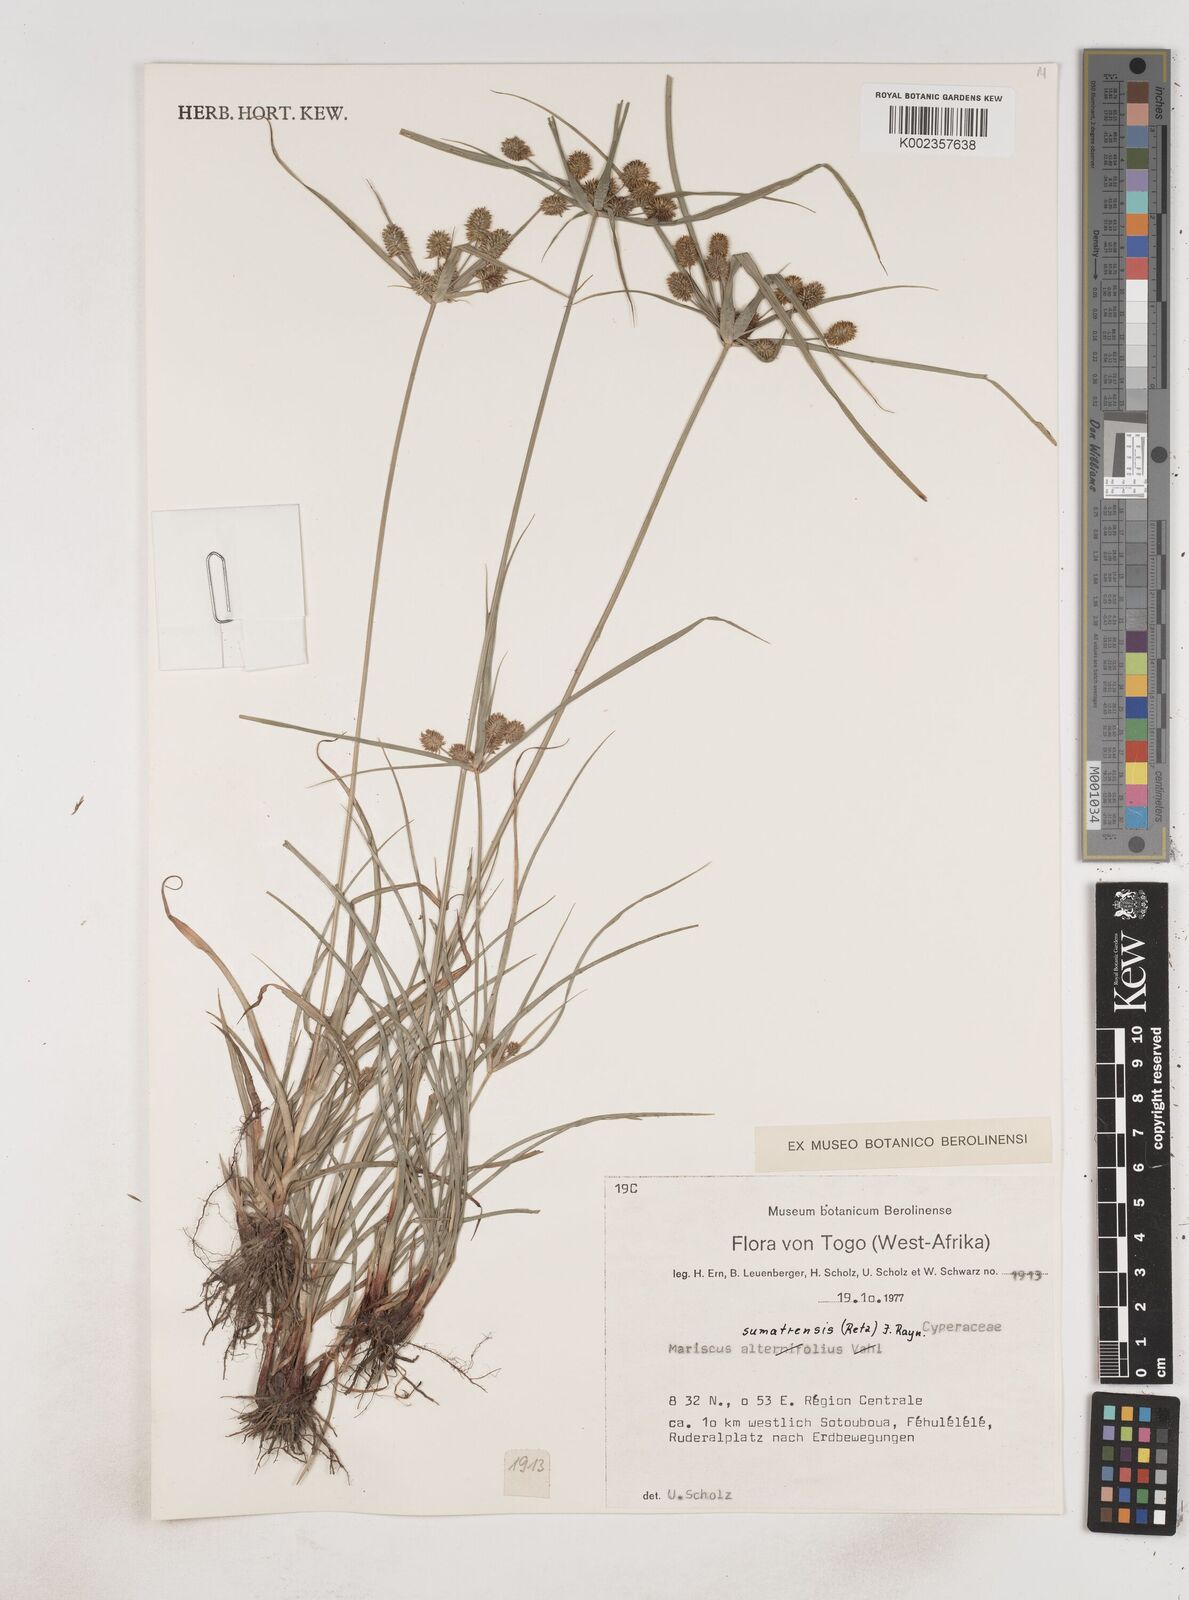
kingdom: Plantae
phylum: Tracheophyta
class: Liliopsida
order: Poales
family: Cyperaceae
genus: Cyperus
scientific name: Cyperus cyperoides
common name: Pacific island flat sedge
